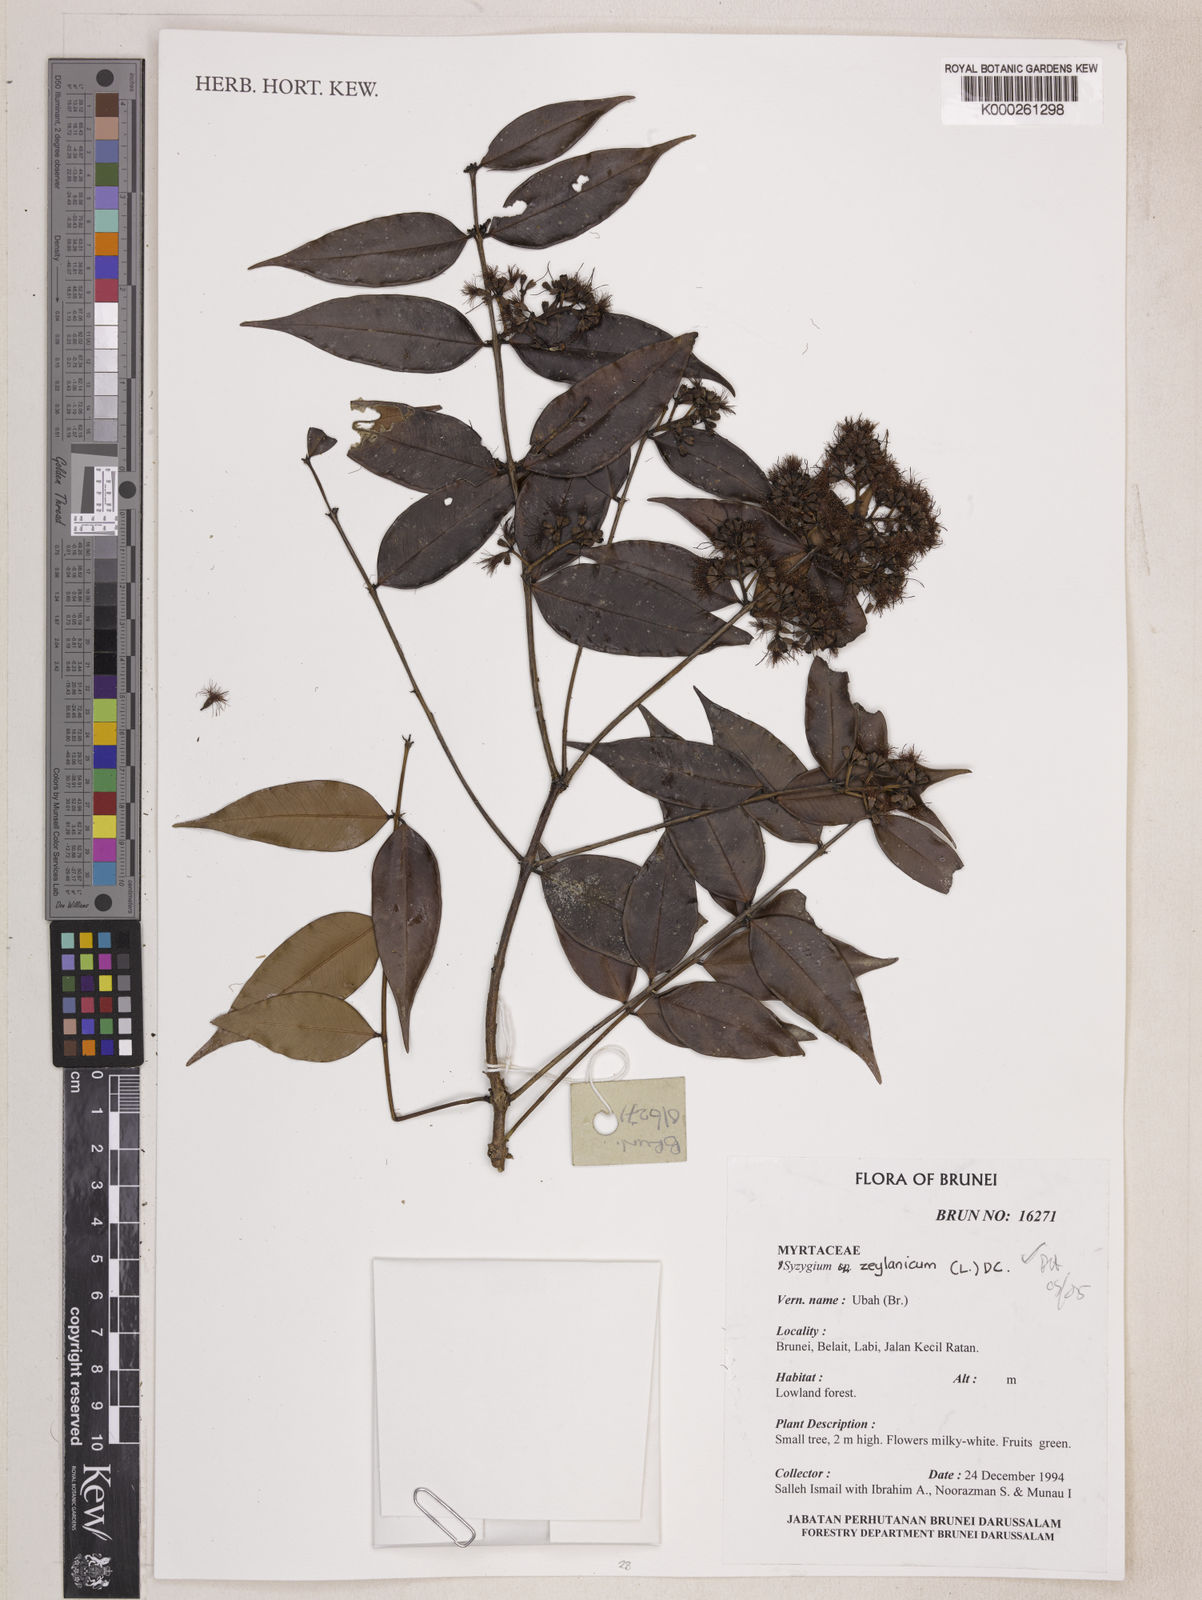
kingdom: Plantae
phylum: Tracheophyta
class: Magnoliopsida
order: Myrtales
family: Myrtaceae
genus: Syzygium
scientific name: Syzygium zeylanicum
